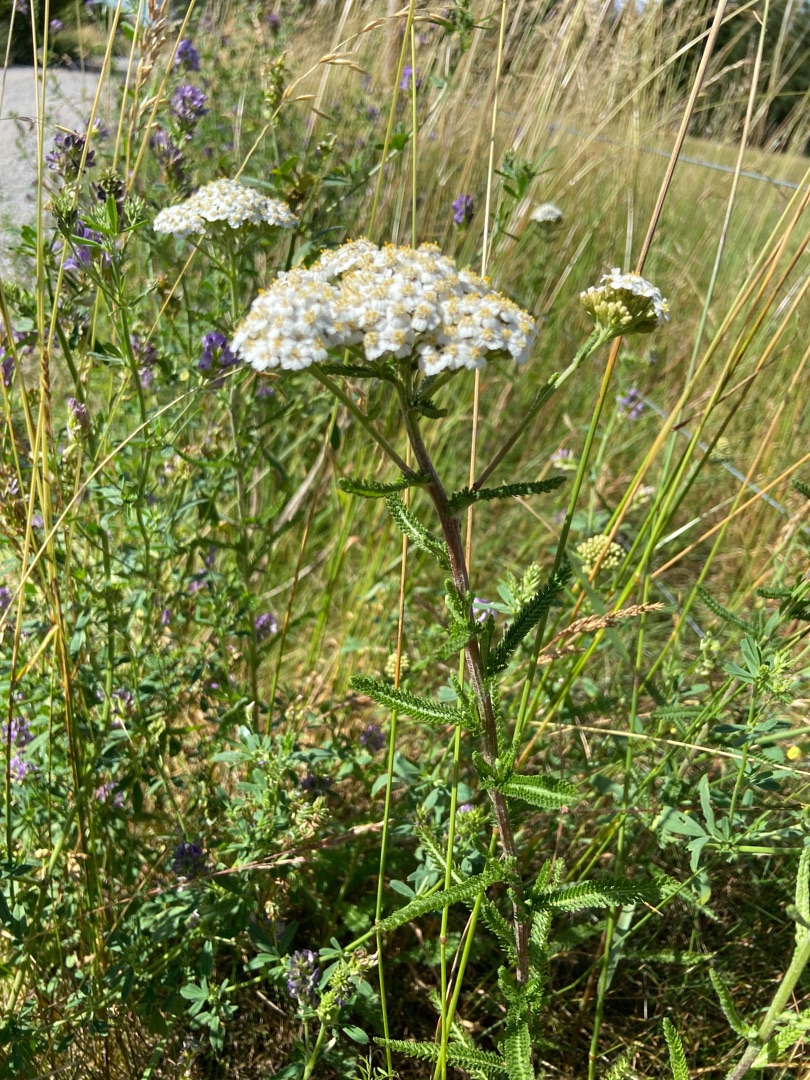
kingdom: Plantae
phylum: Tracheophyta
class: Magnoliopsida
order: Asterales
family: Asteraceae
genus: Achillea
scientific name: Achillea millefolium
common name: Almindelig røllike
